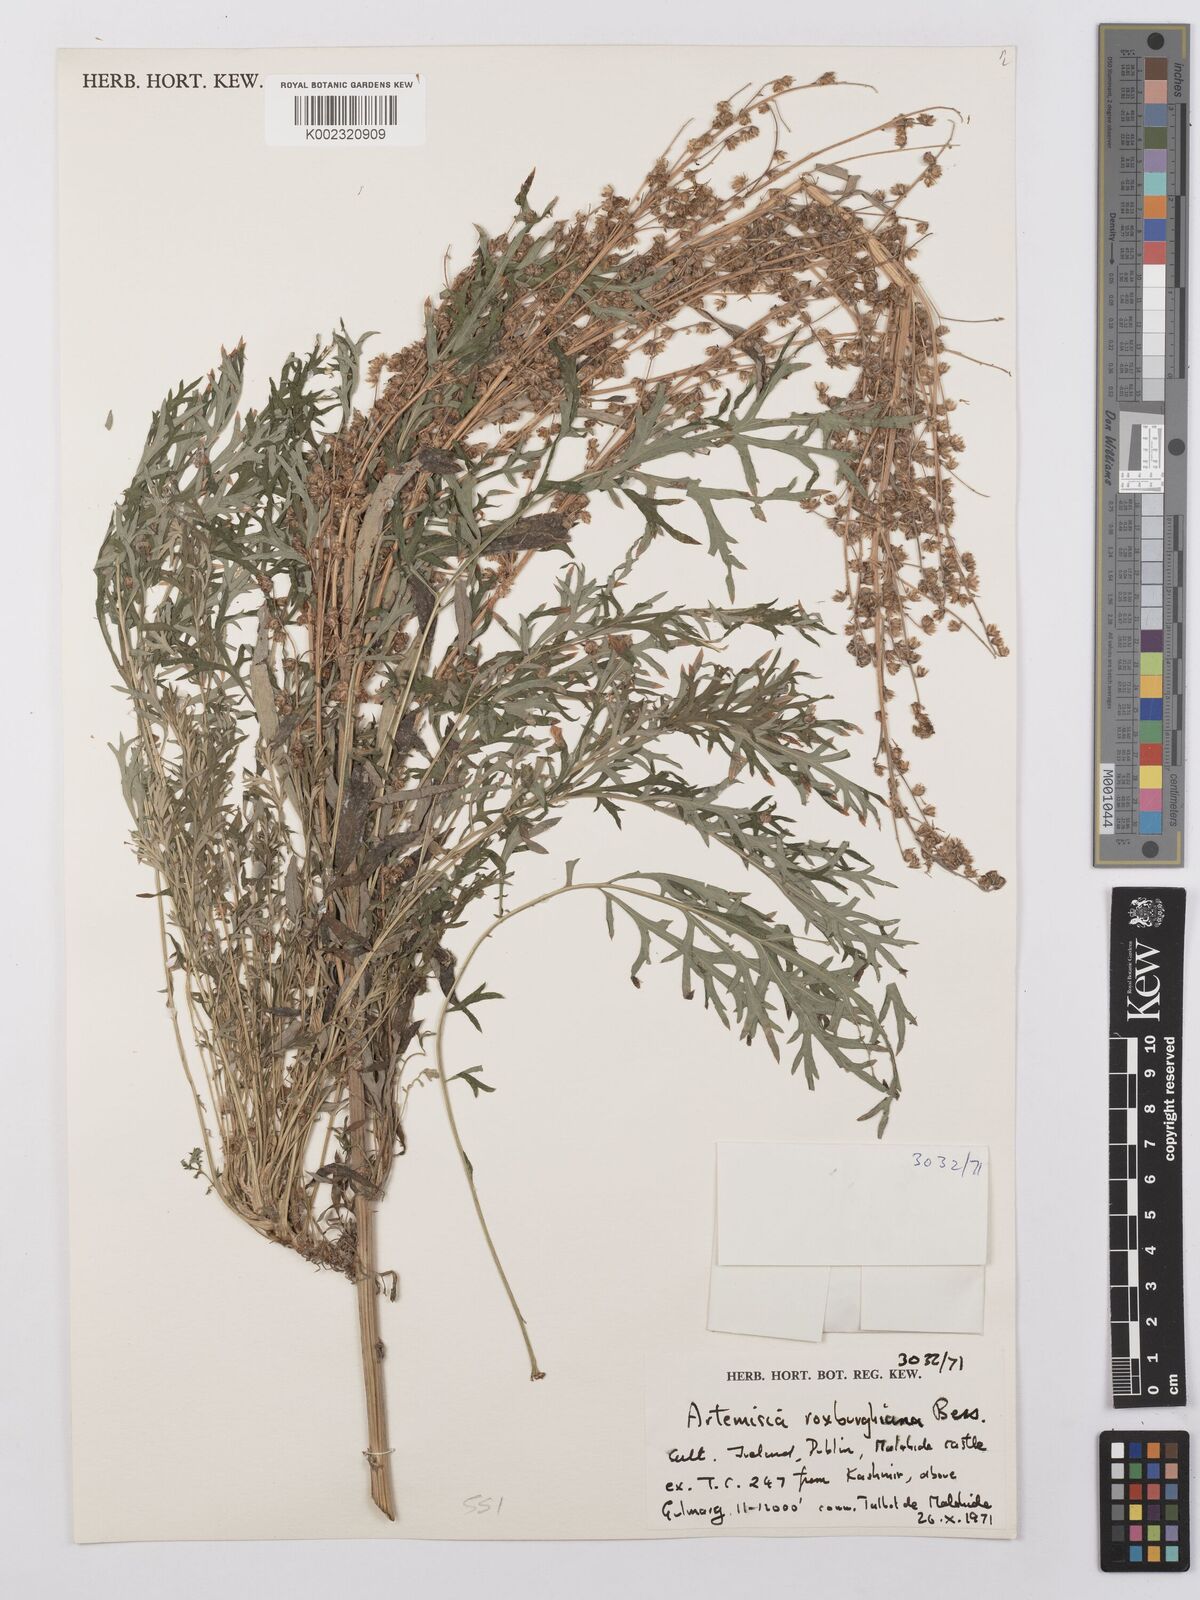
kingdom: Plantae
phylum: Tracheophyta
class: Magnoliopsida
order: Asterales
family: Asteraceae
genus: Artemisia
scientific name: Artemisia roxburghiana
